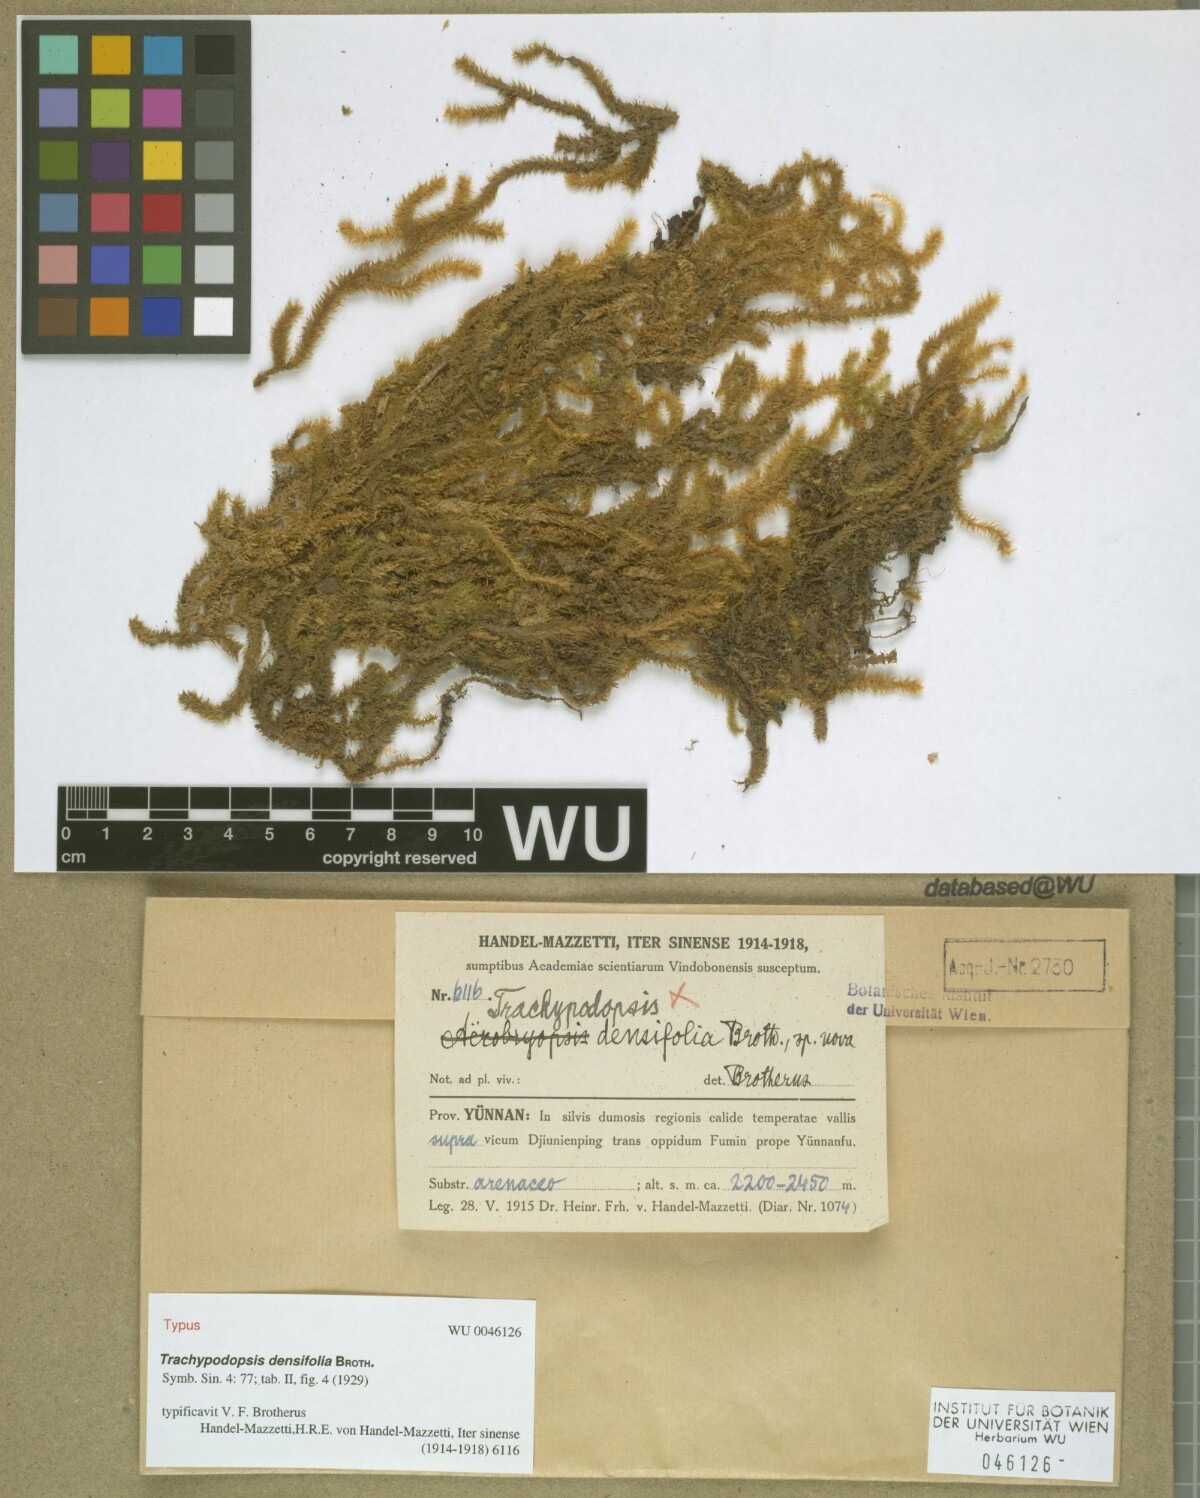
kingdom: Plantae
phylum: Bryophyta
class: Bryopsida
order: Hypnales
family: Meteoriaceae
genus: Trachypodopsis
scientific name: Trachypodopsis serrulata
